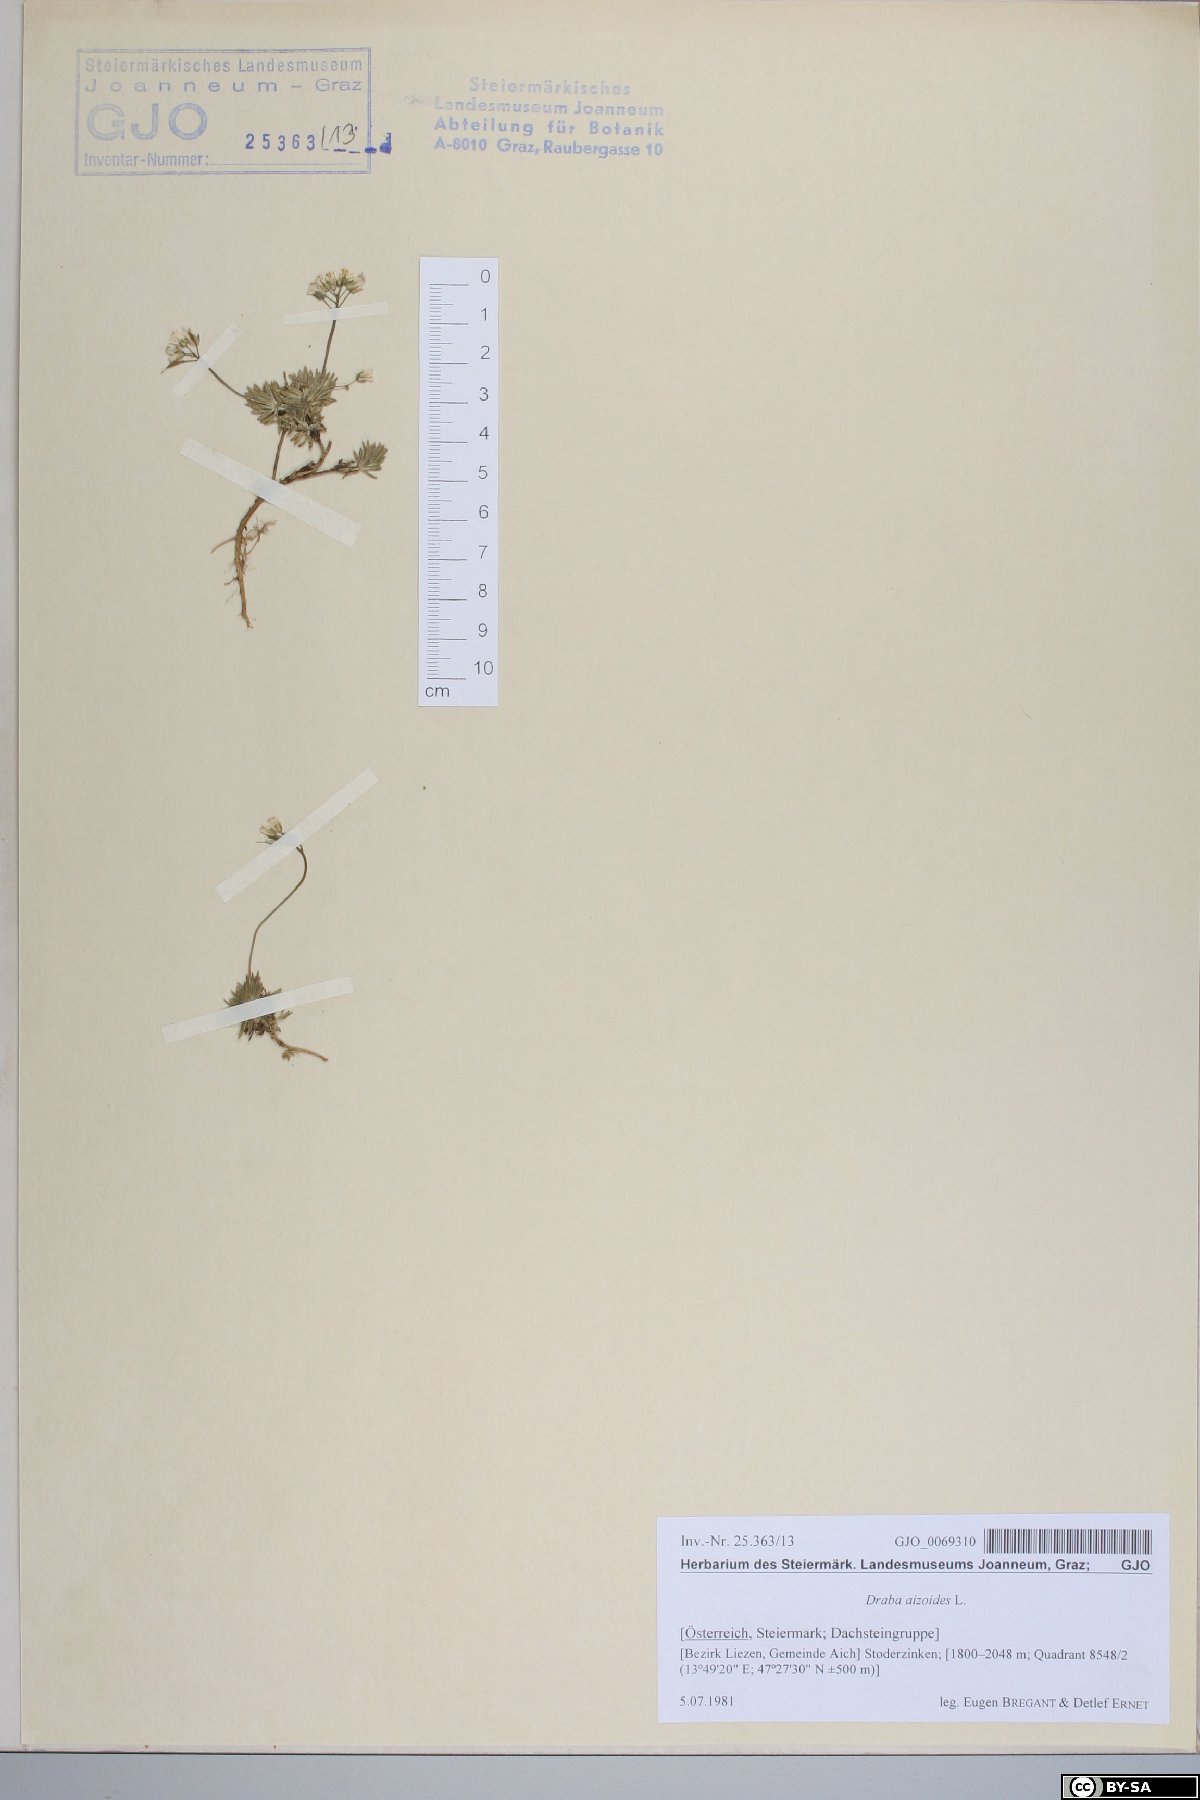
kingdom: Plantae
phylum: Tracheophyta
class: Magnoliopsida
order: Brassicales
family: Brassicaceae
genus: Draba
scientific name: Draba aizoides
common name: Yellow whitlowgrass
